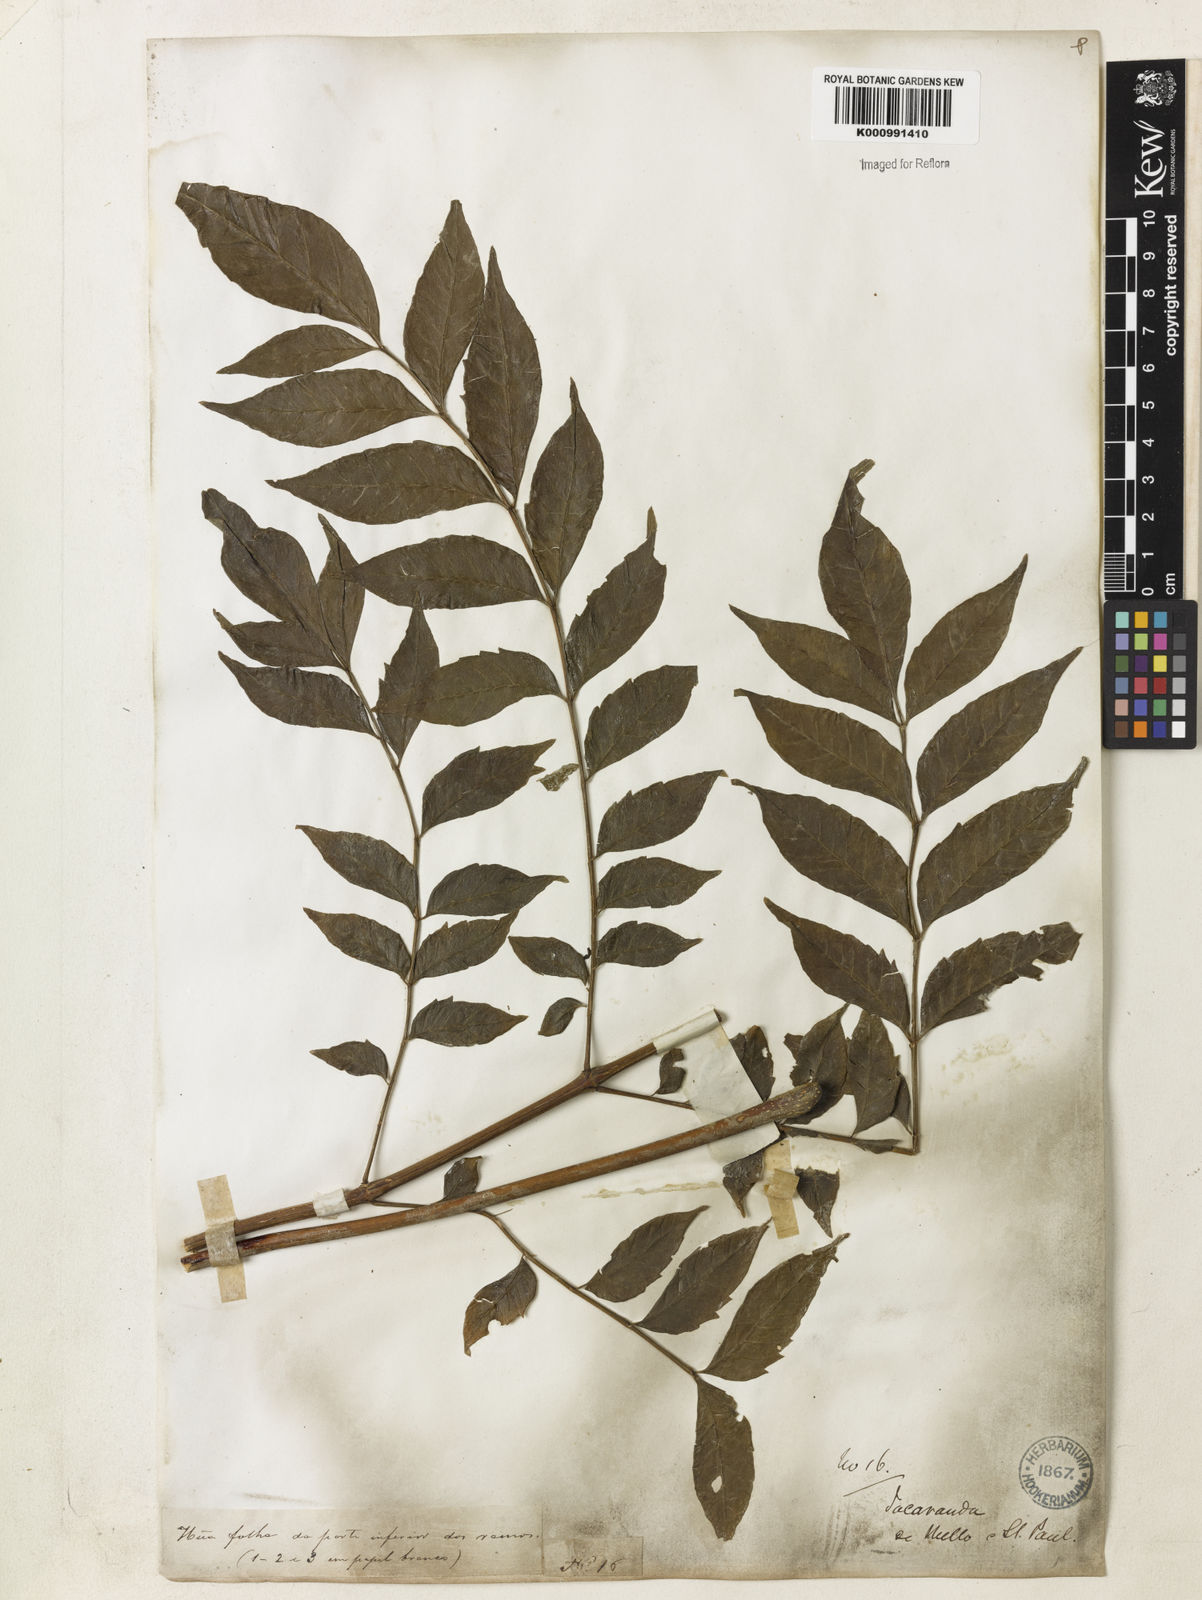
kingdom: Plantae
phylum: Tracheophyta
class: Magnoliopsida
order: Lamiales
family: Bignoniaceae
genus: Jacaranda
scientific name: Jacaranda micrantha
